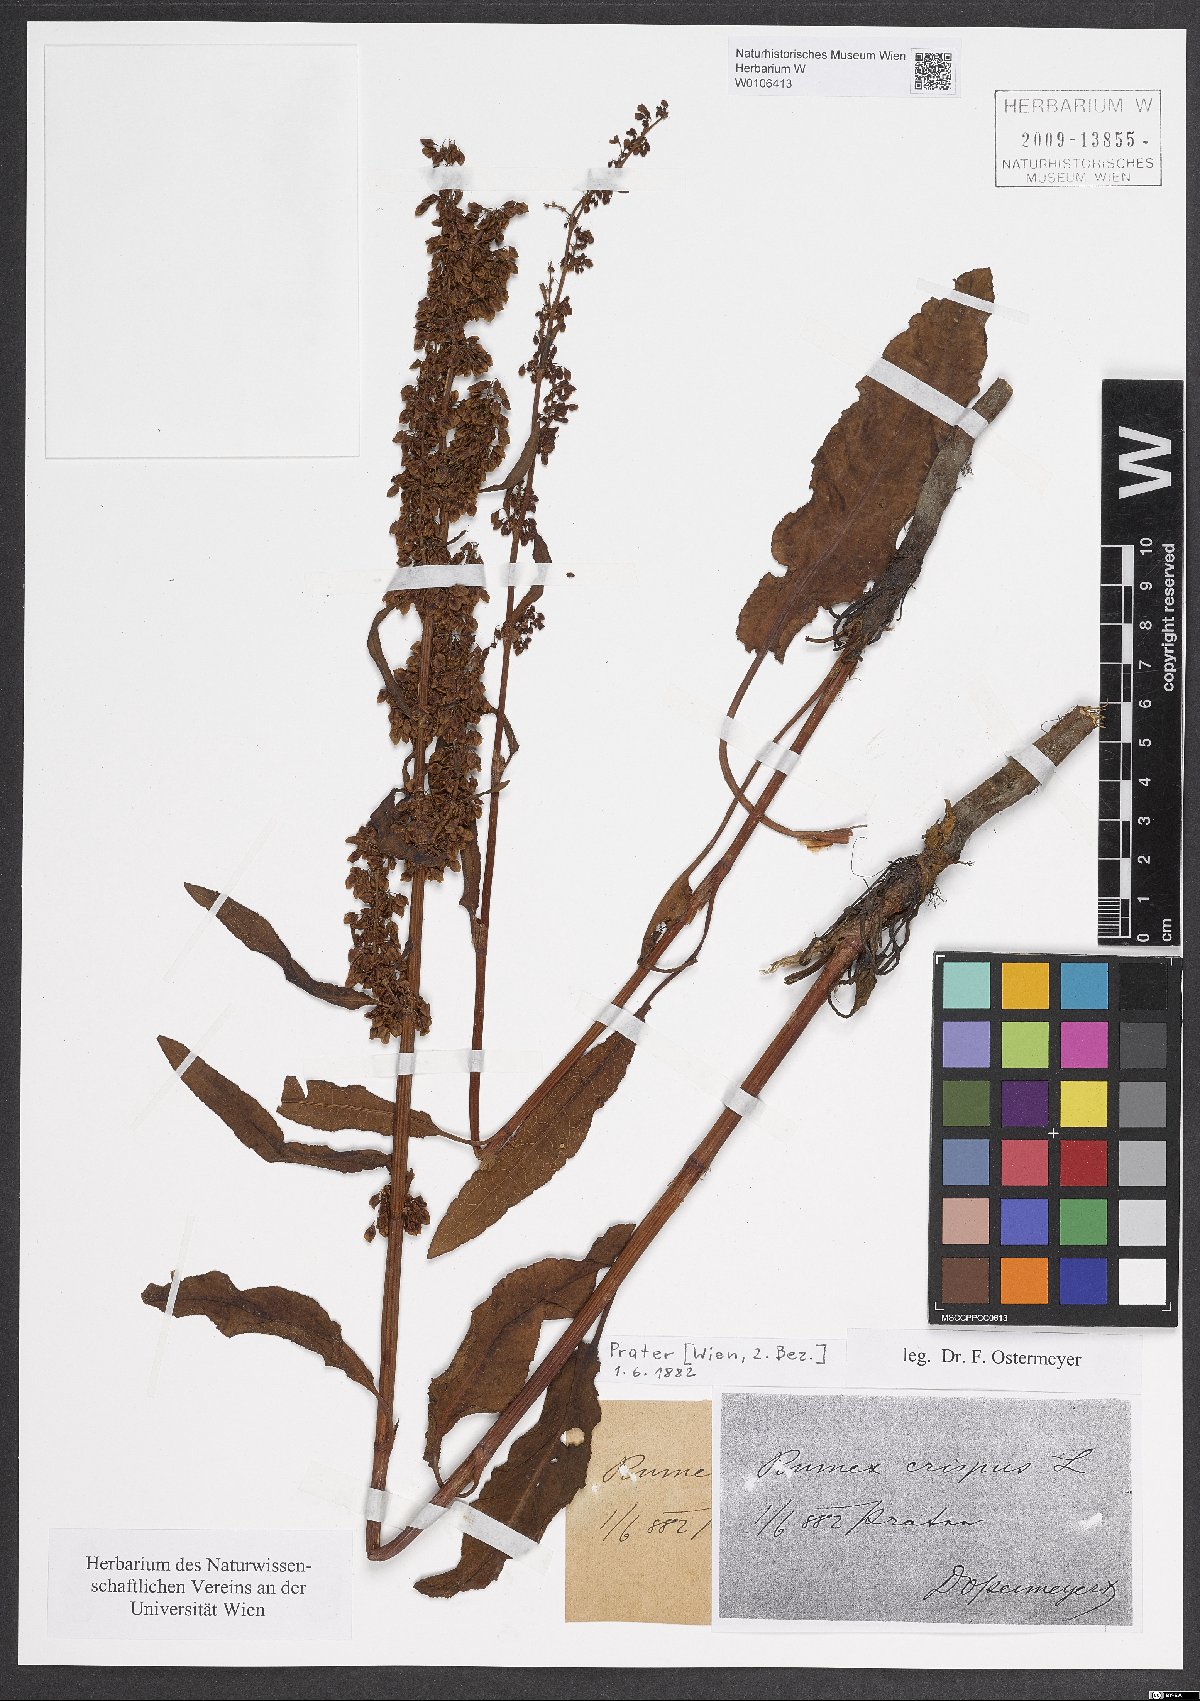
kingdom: Plantae
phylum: Tracheophyta
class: Magnoliopsida
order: Caryophyllales
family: Polygonaceae
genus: Rumex
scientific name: Rumex crispus
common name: Curled dock
